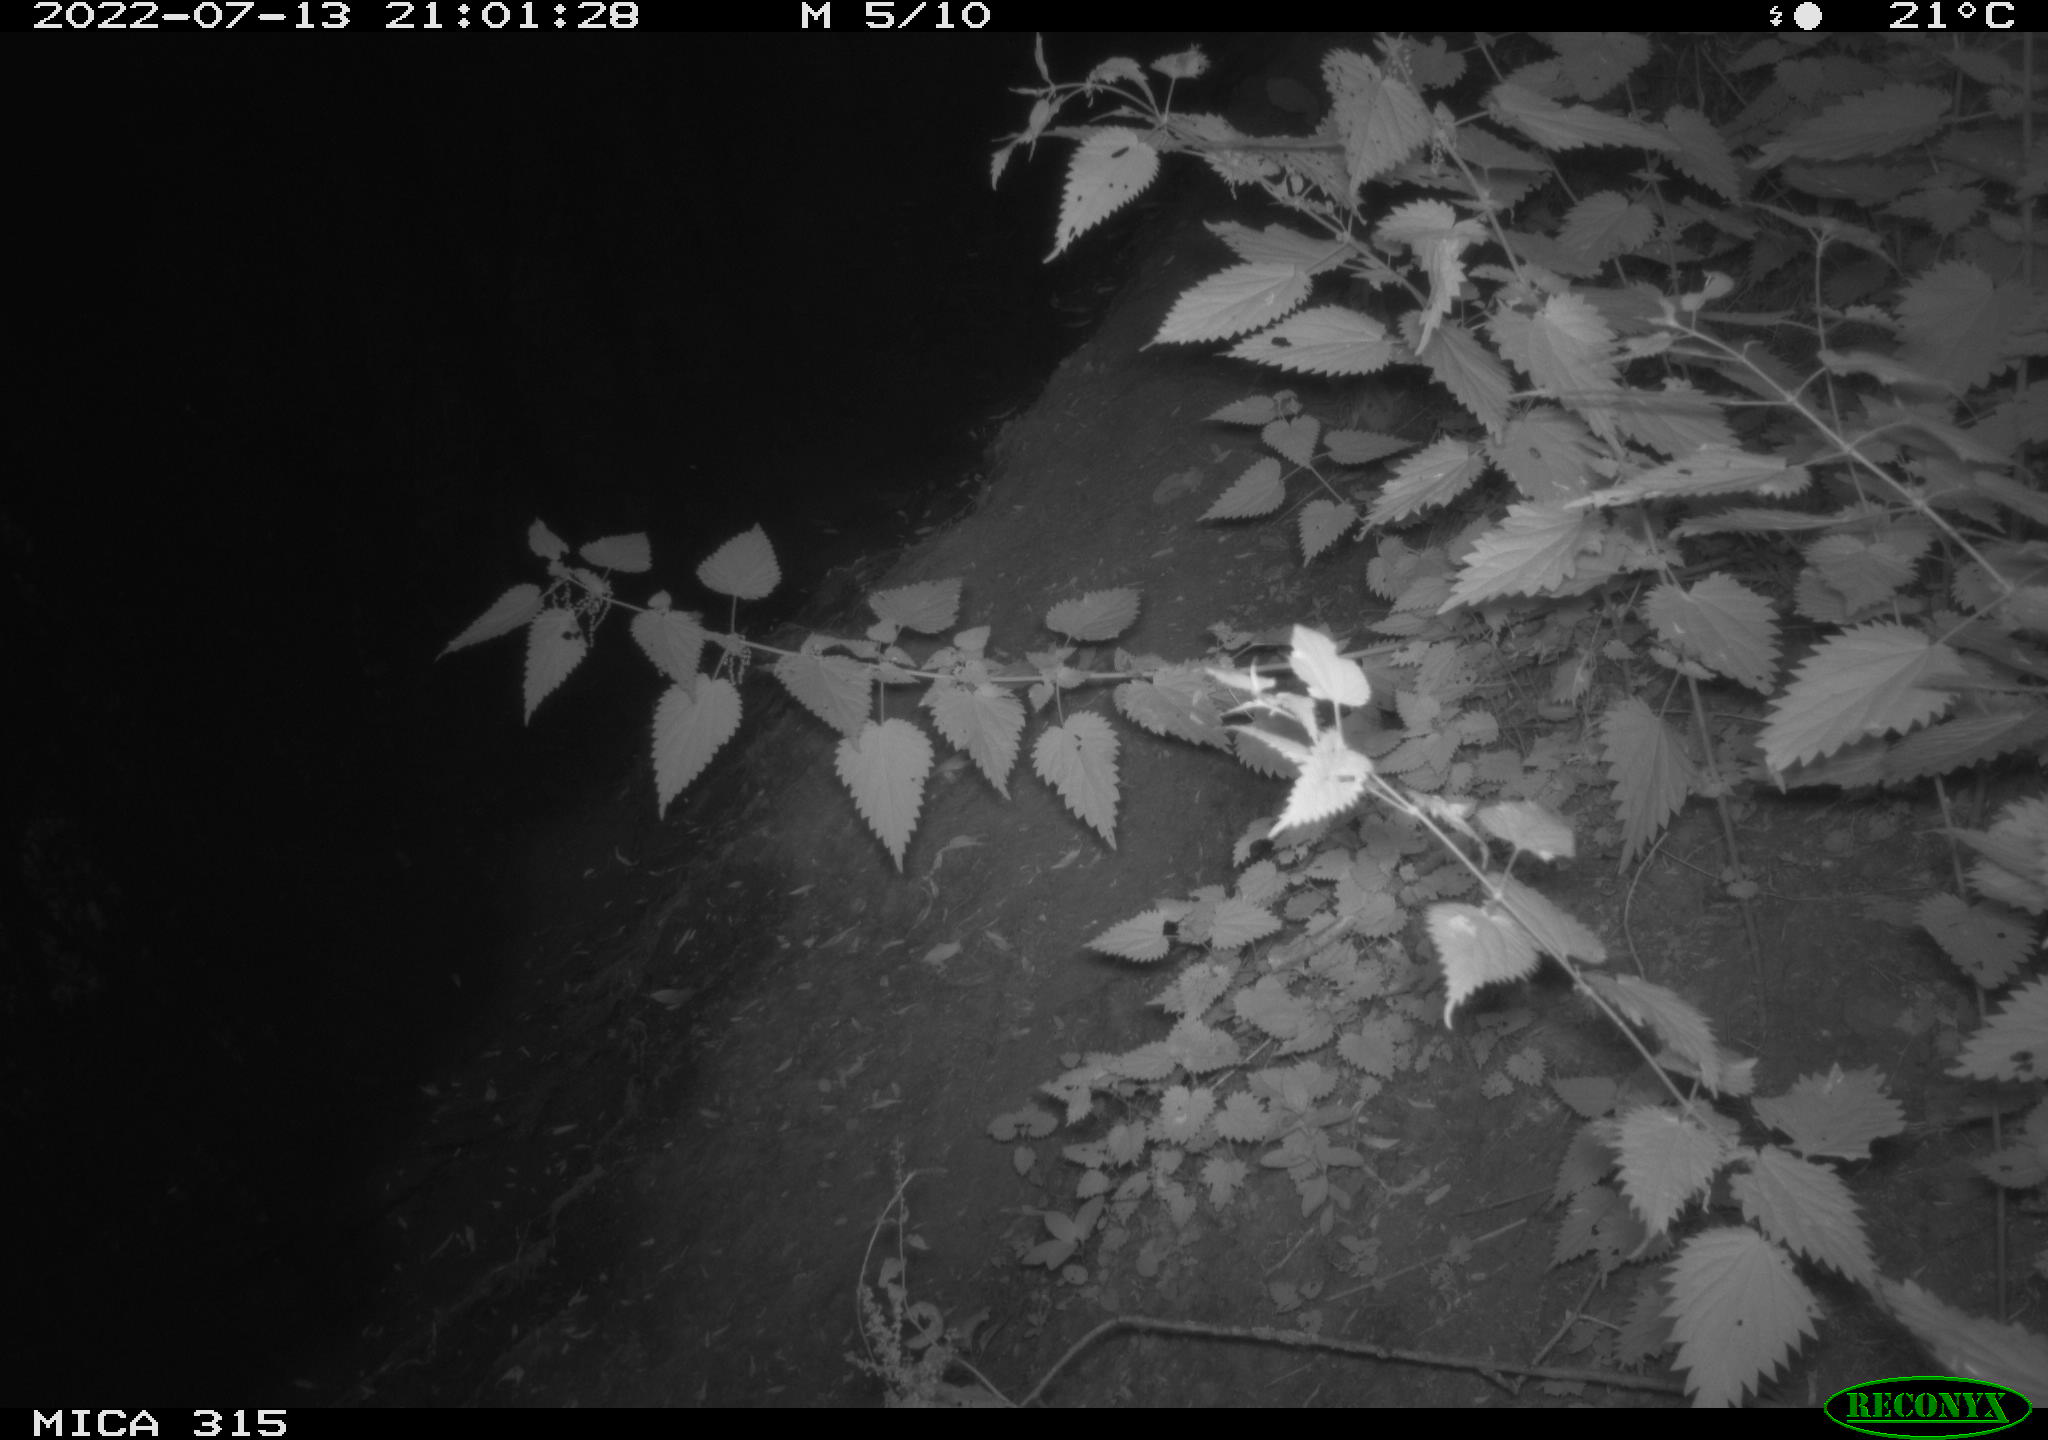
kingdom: Animalia
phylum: Chordata
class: Mammalia
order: Carnivora
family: Canidae
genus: Vulpes
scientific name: Vulpes vulpes
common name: Red fox
